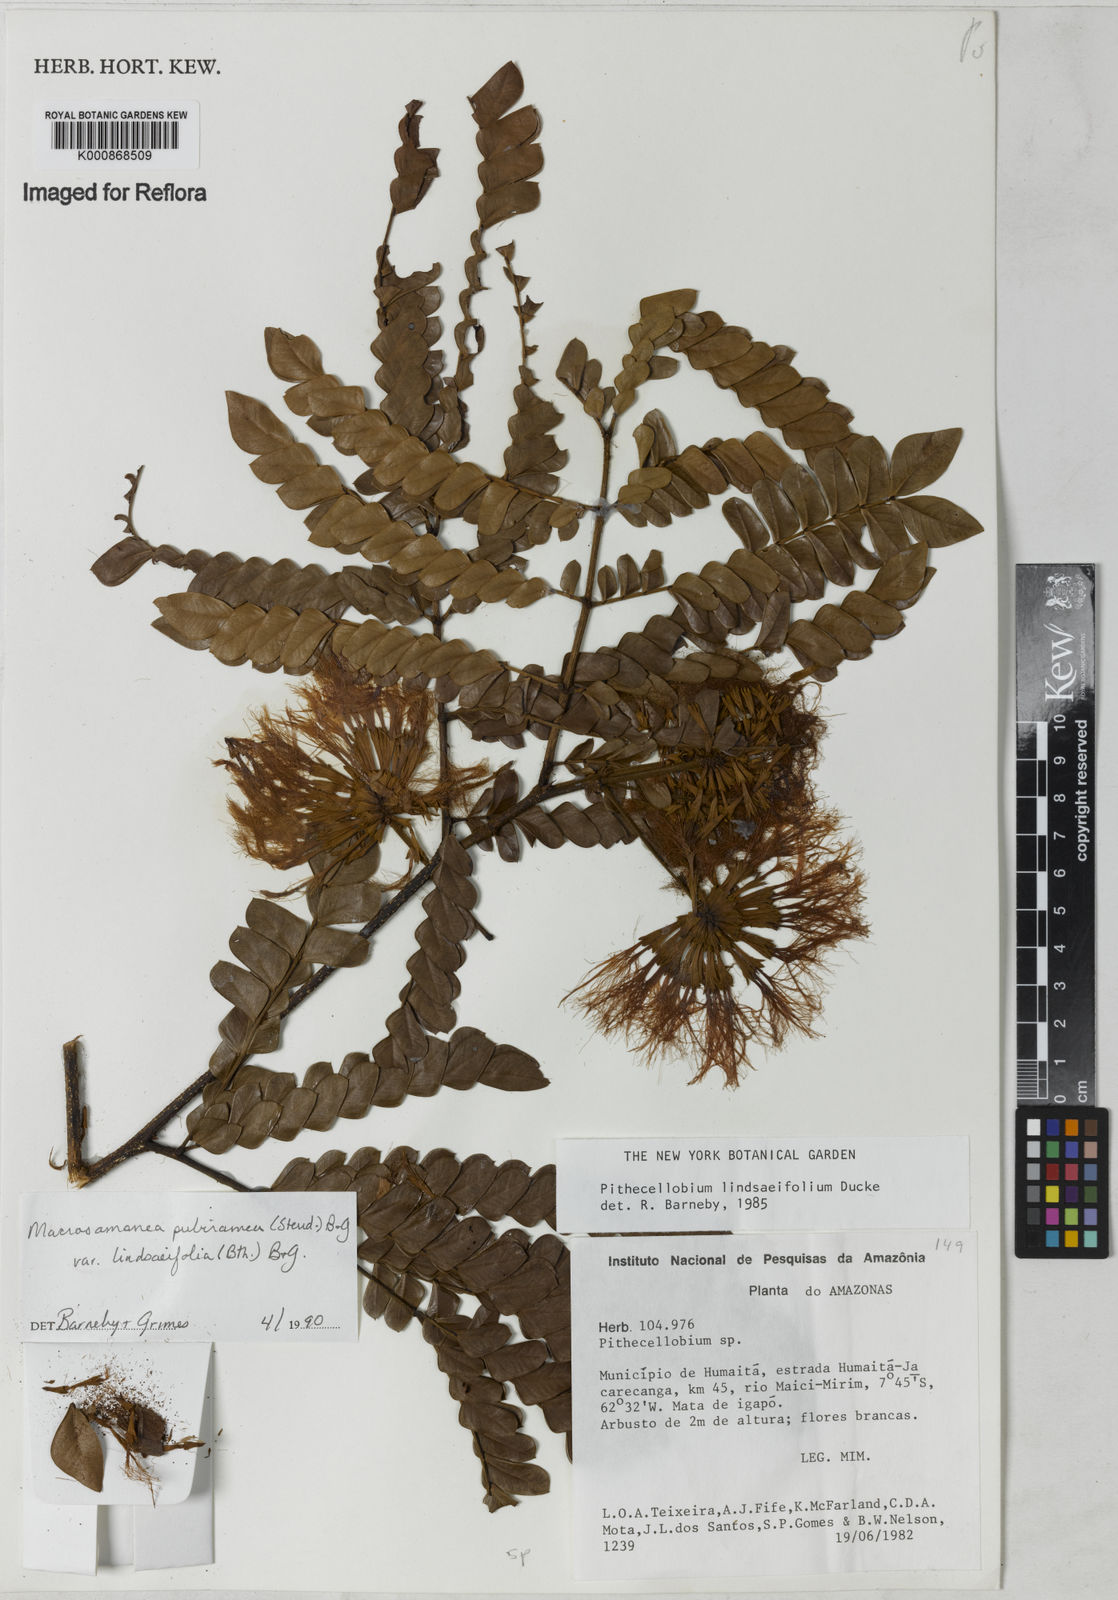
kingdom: Plantae
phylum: Tracheophyta
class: Magnoliopsida
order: Fabales
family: Fabaceae
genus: Macrosamanea
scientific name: Macrosamanea pubiramea
